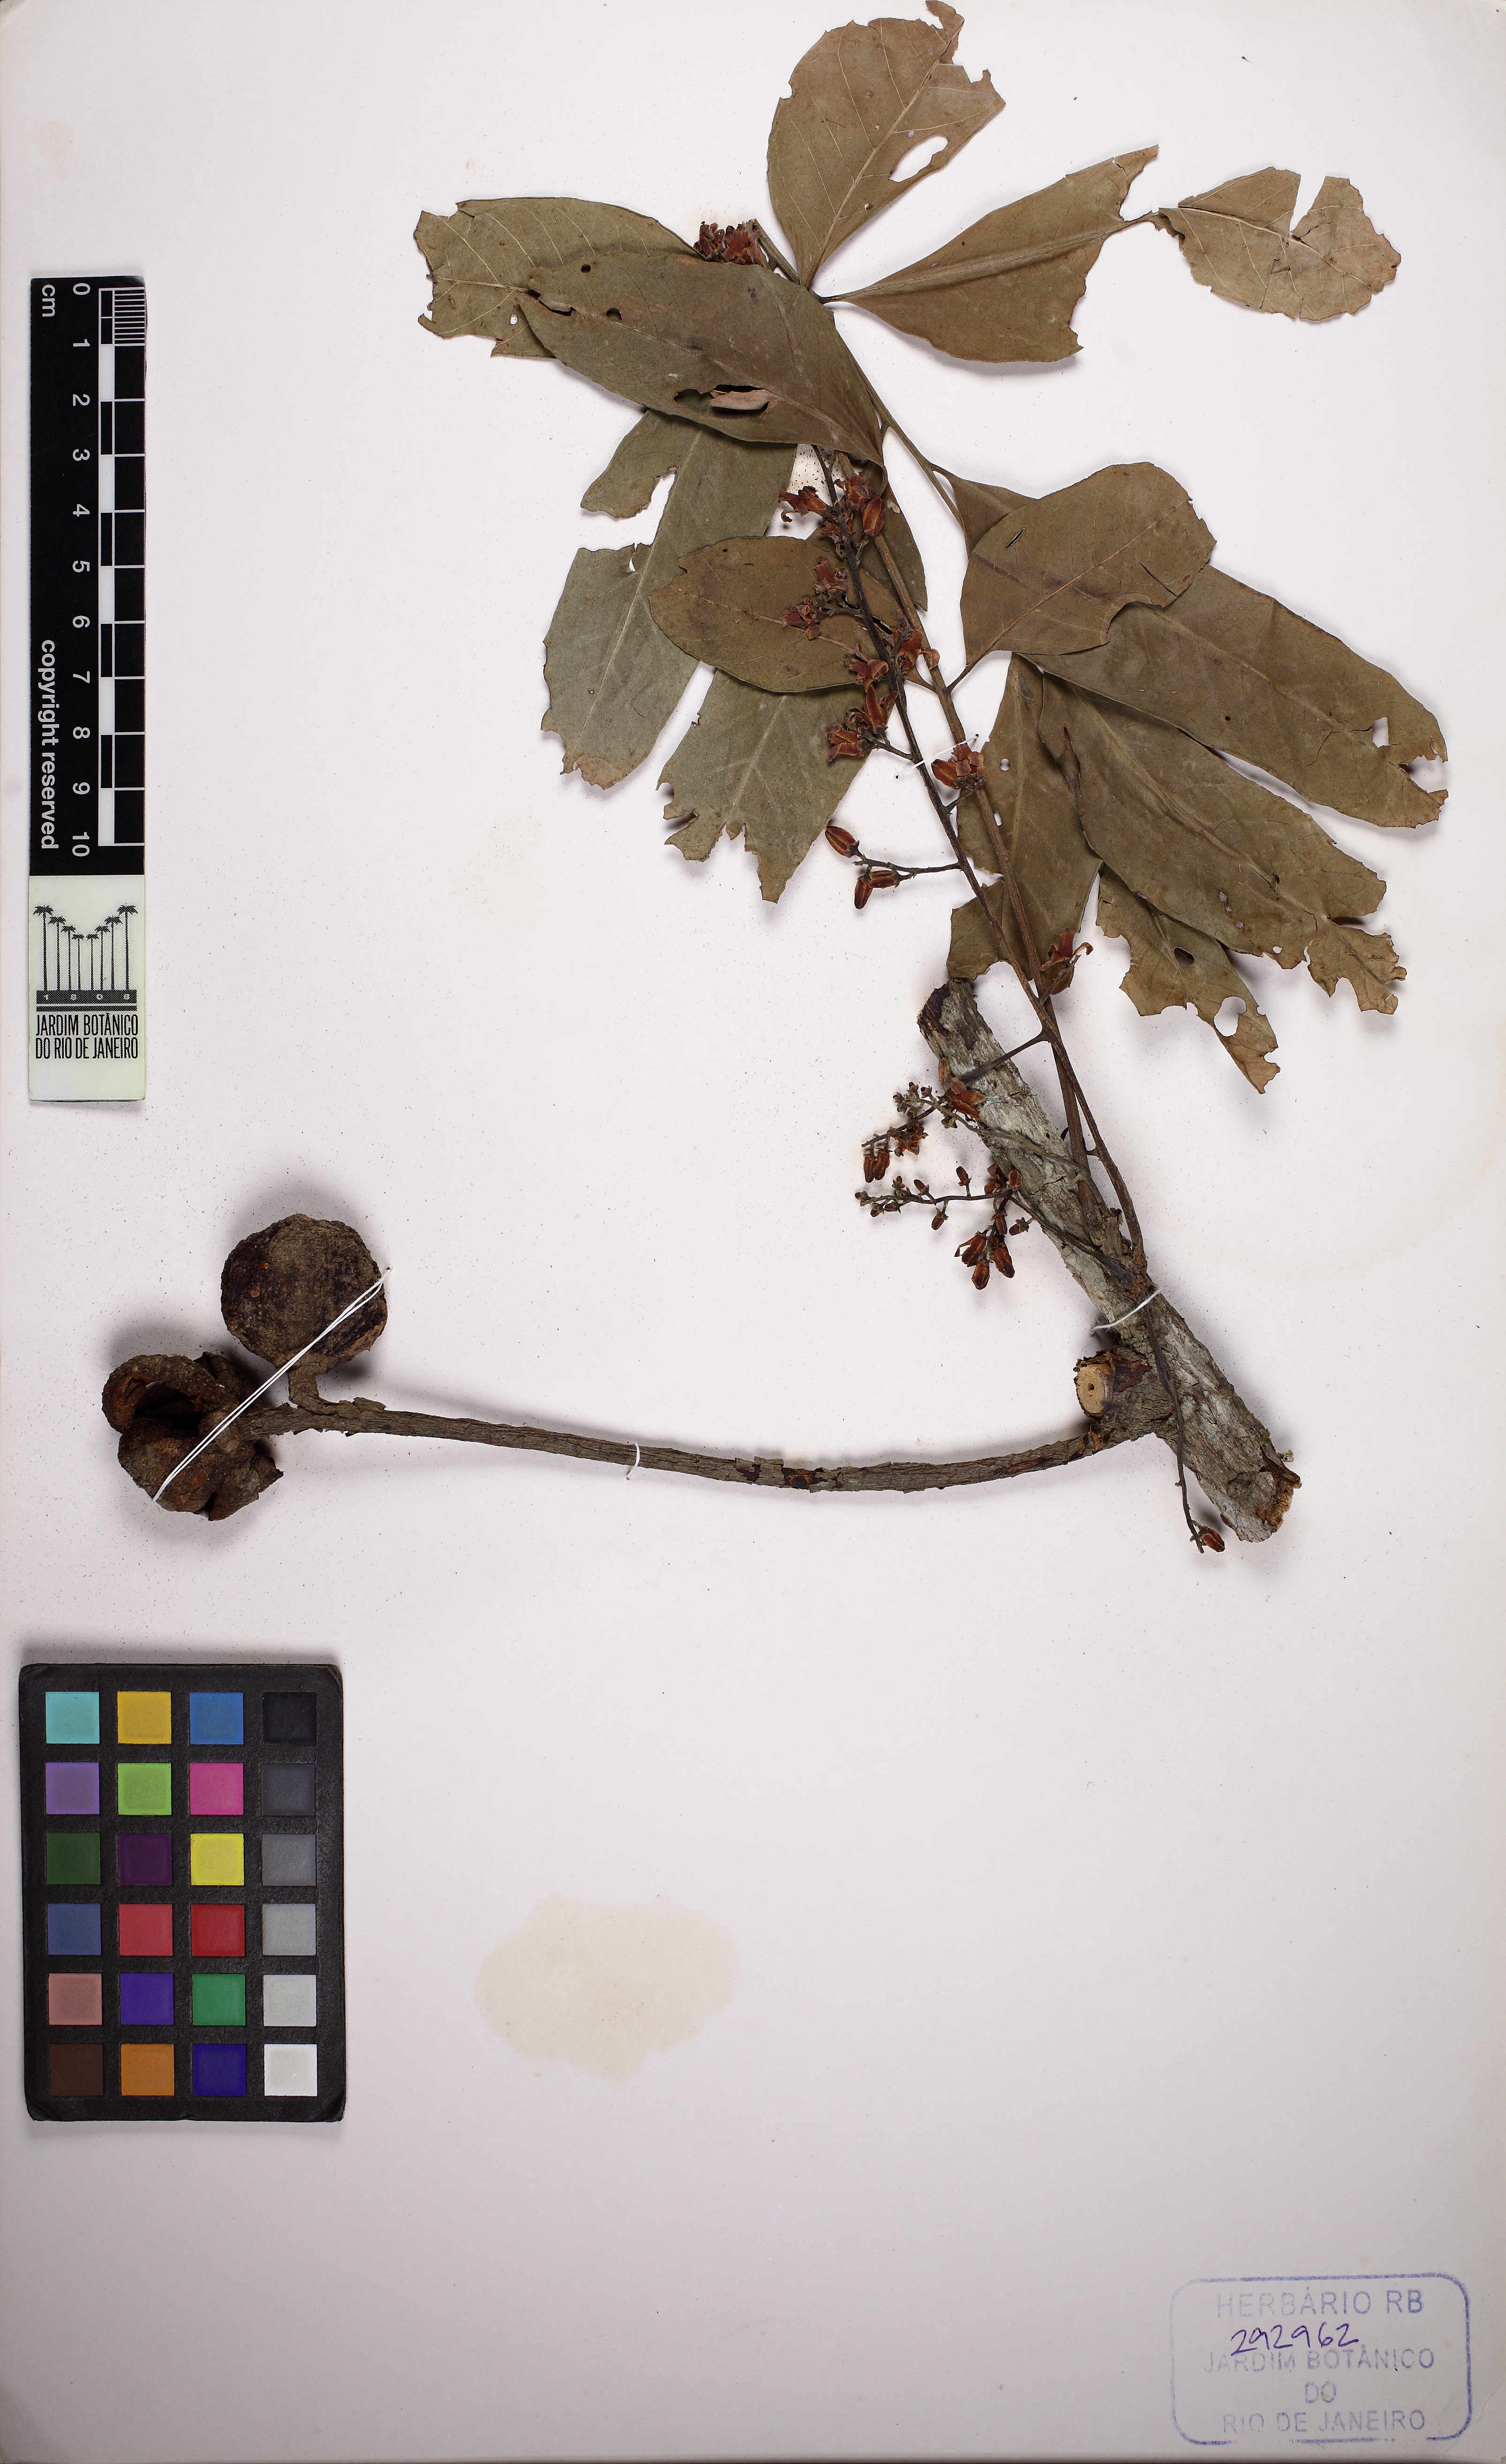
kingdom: Plantae
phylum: Tracheophyta
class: Magnoliopsida
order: Sapindales
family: Meliaceae
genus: Cabralea
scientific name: Cabralea canjerana
